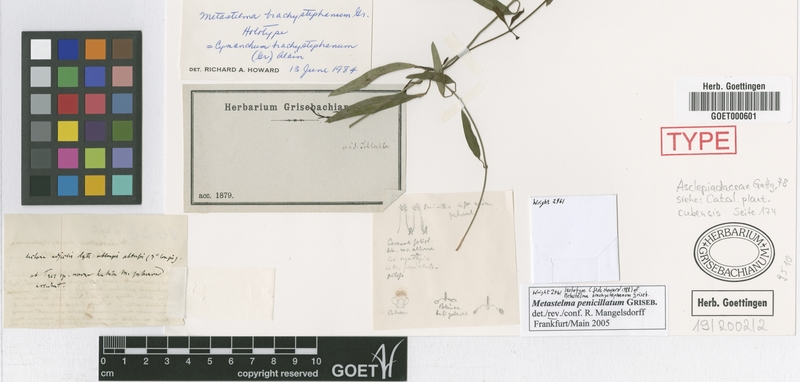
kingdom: Plantae
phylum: Tracheophyta
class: Magnoliopsida
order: Gentianales
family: Apocynaceae
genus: Metastelma
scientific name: Metastelma penicillatum
